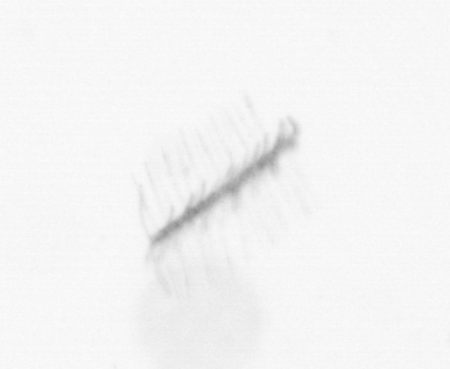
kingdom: Chromista
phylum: Ochrophyta
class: Bacillariophyceae
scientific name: Bacillariophyceae
